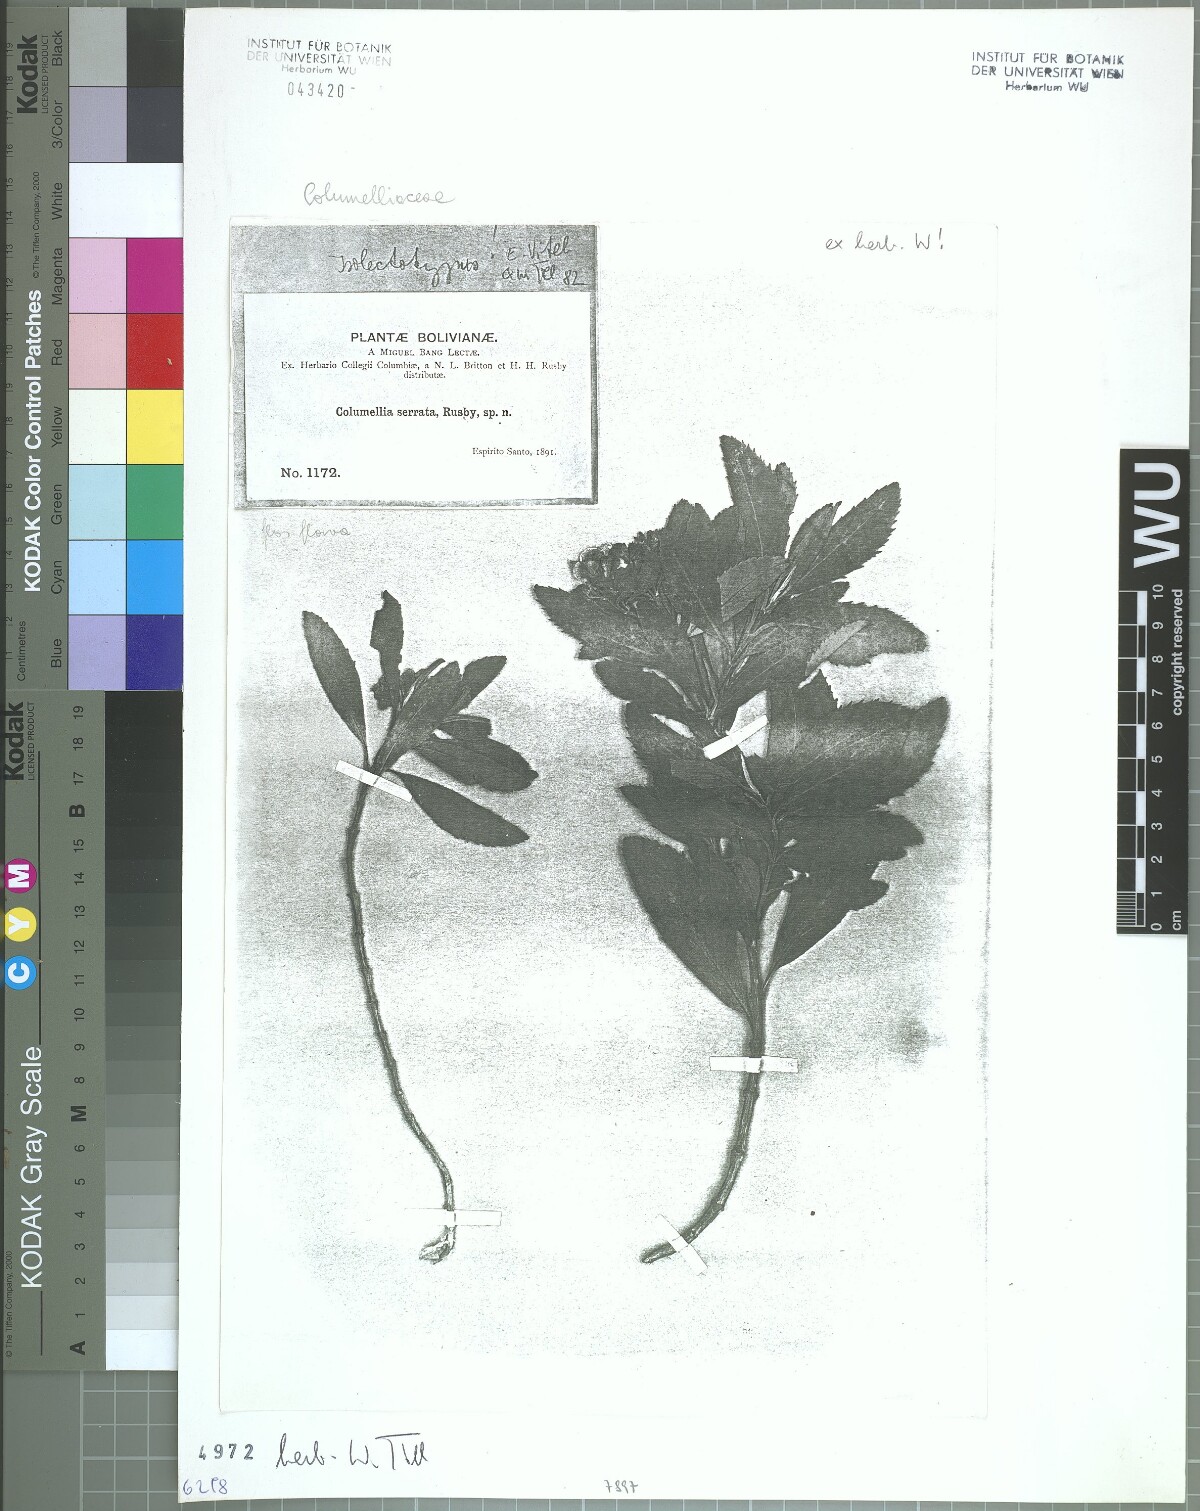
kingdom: Plantae
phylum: Tracheophyta
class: Magnoliopsida
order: Bruniales
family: Columelliaceae
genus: Columellia
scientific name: Columellia oblonga
